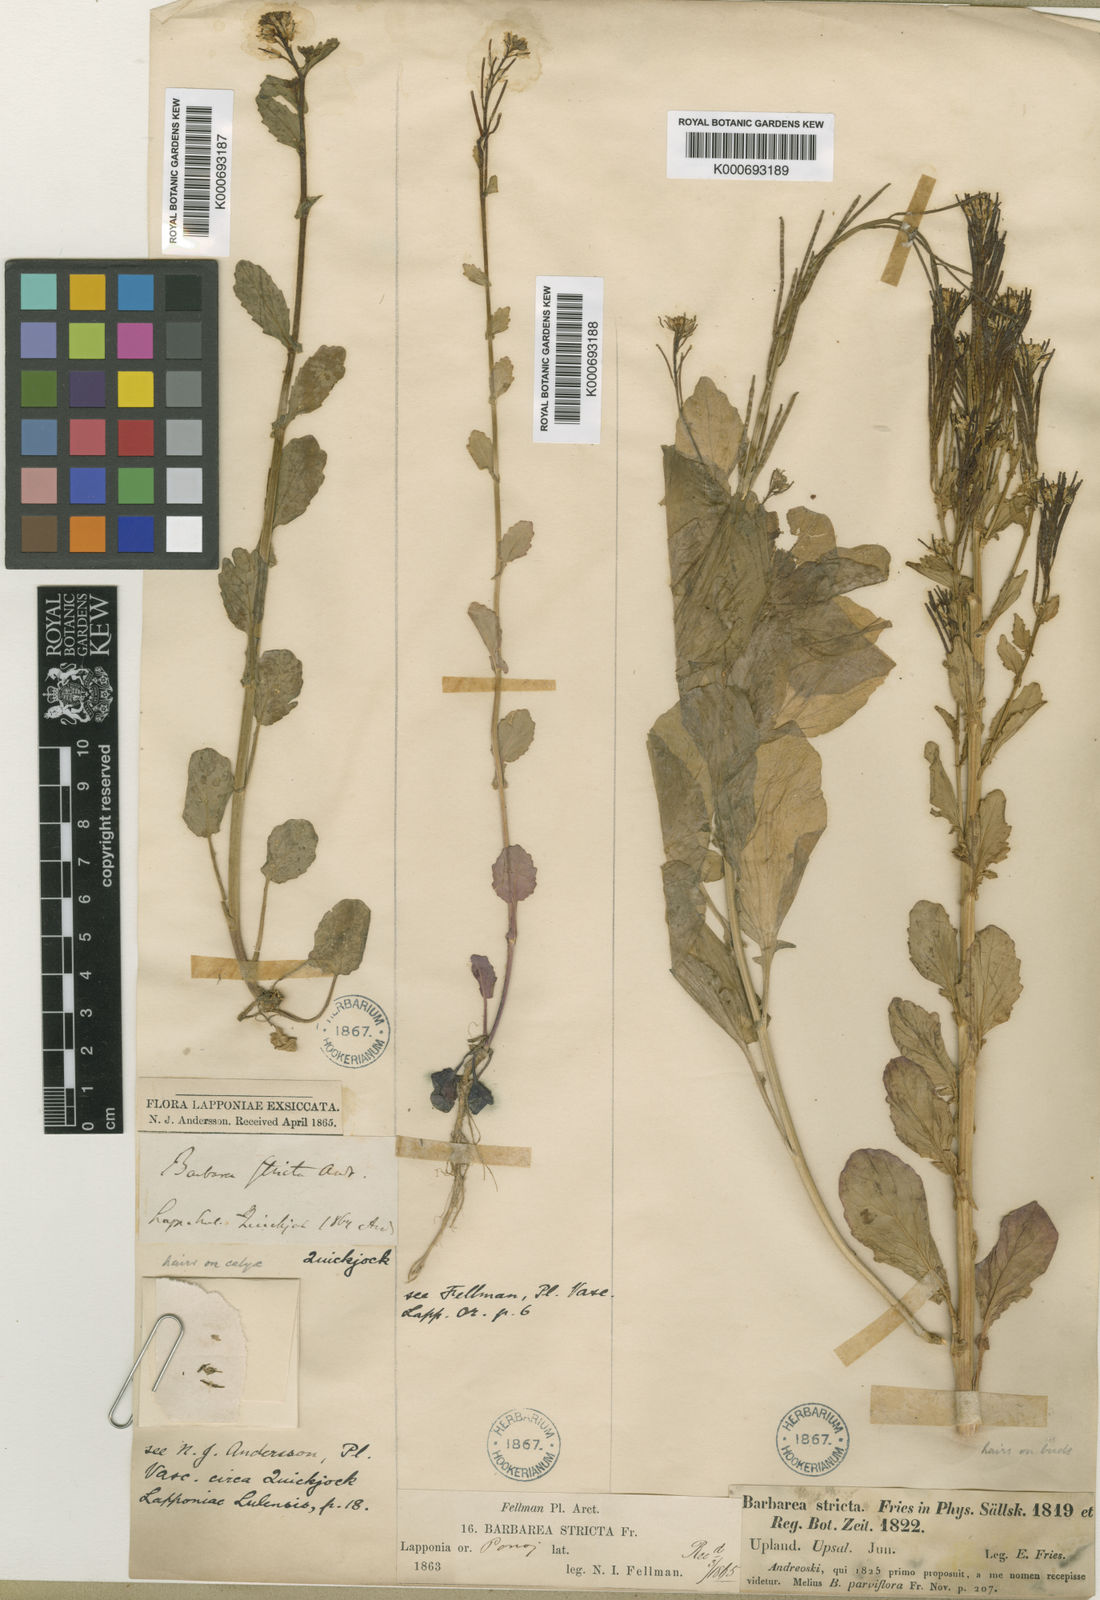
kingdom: Plantae
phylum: Tracheophyta
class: Magnoliopsida
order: Brassicales
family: Brassicaceae
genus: Barbarea
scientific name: Barbarea
